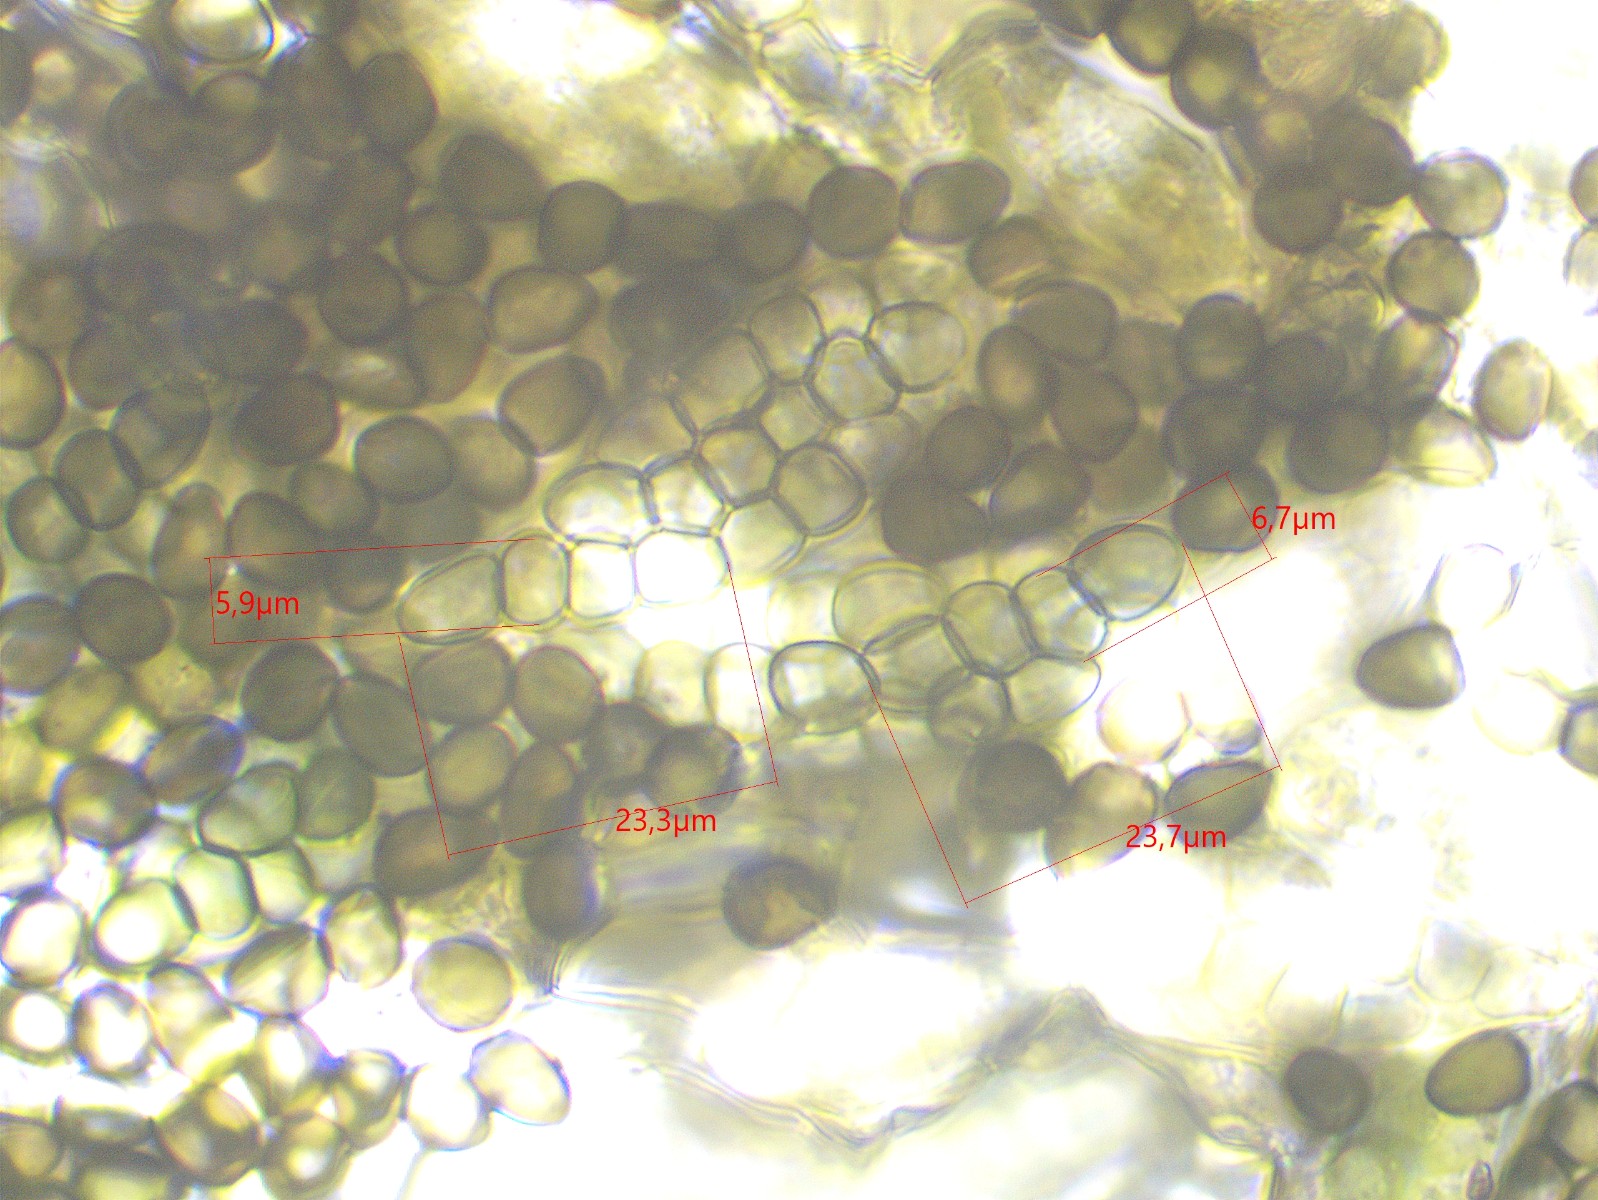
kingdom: Fungi
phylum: Ascomycota
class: Dothideomycetes
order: Pleosporales
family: Sporormiaceae
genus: Preussia
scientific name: Preussia typharum
